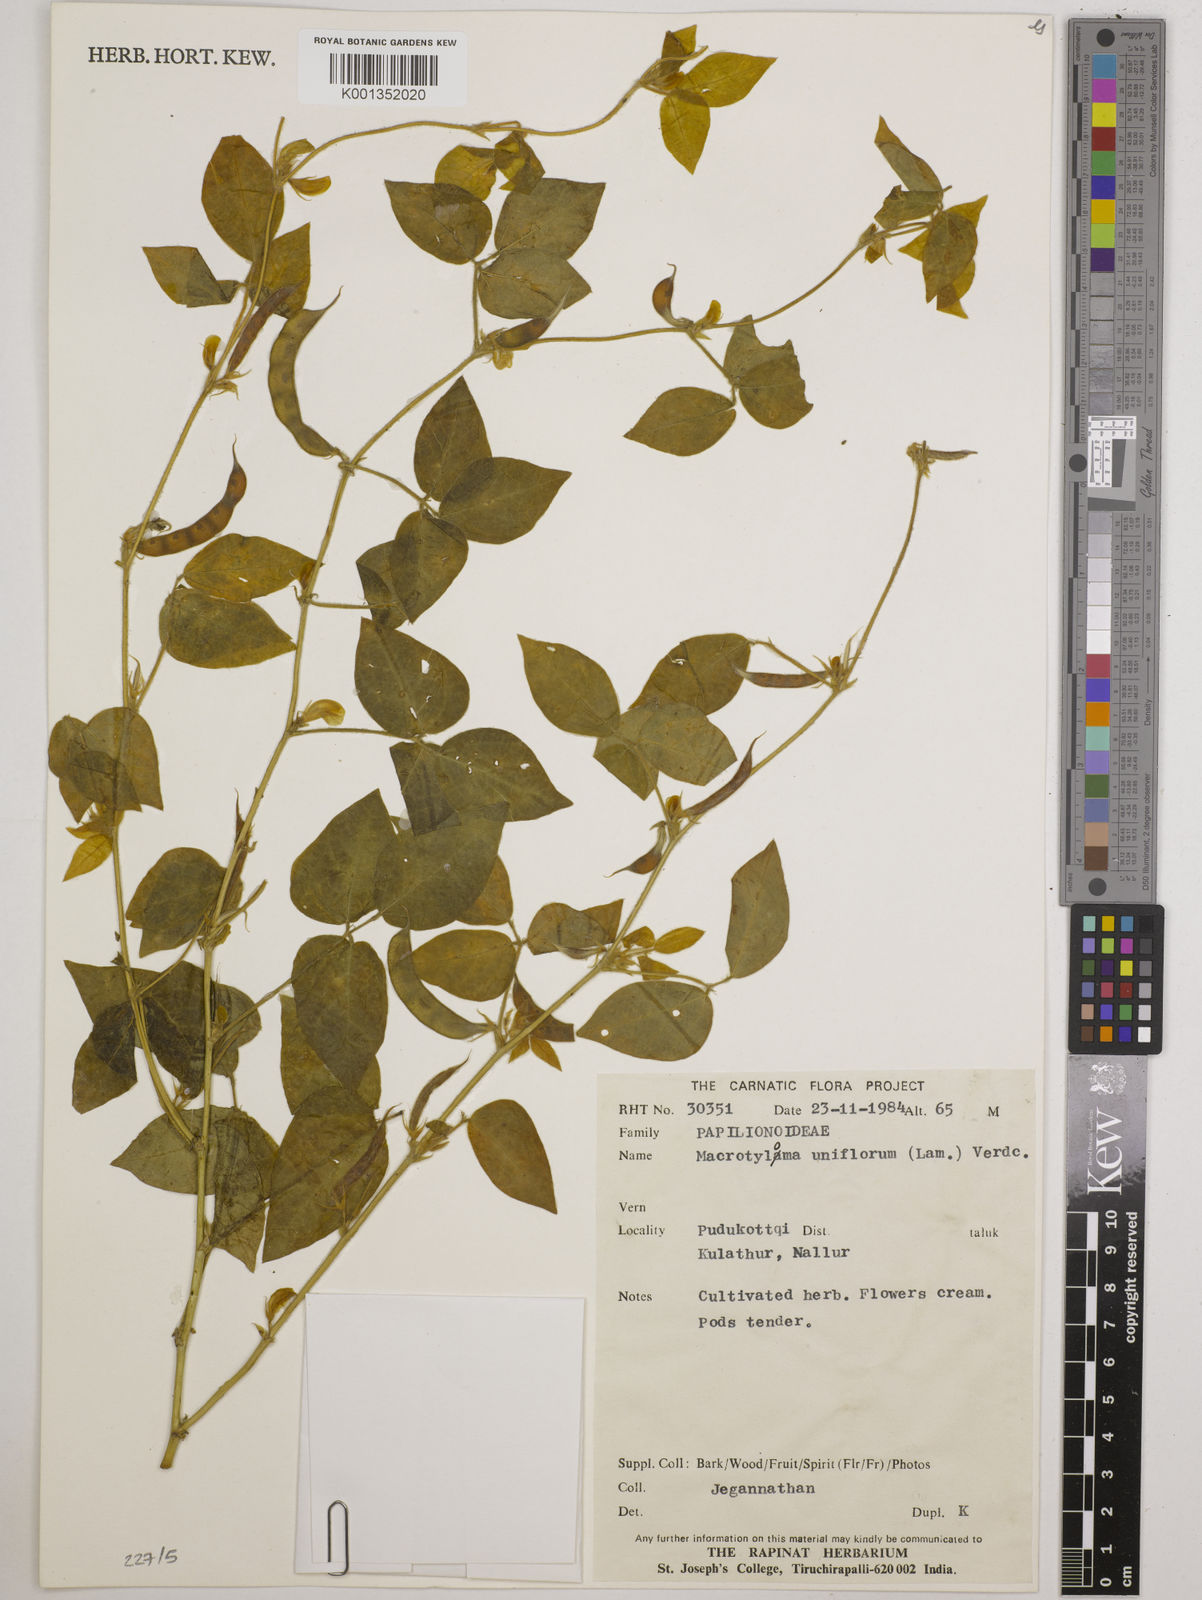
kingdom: Plantae
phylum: Tracheophyta
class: Magnoliopsida
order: Fabales
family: Fabaceae
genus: Macrotyloma
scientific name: Macrotyloma uniflorum
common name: Horse gram
